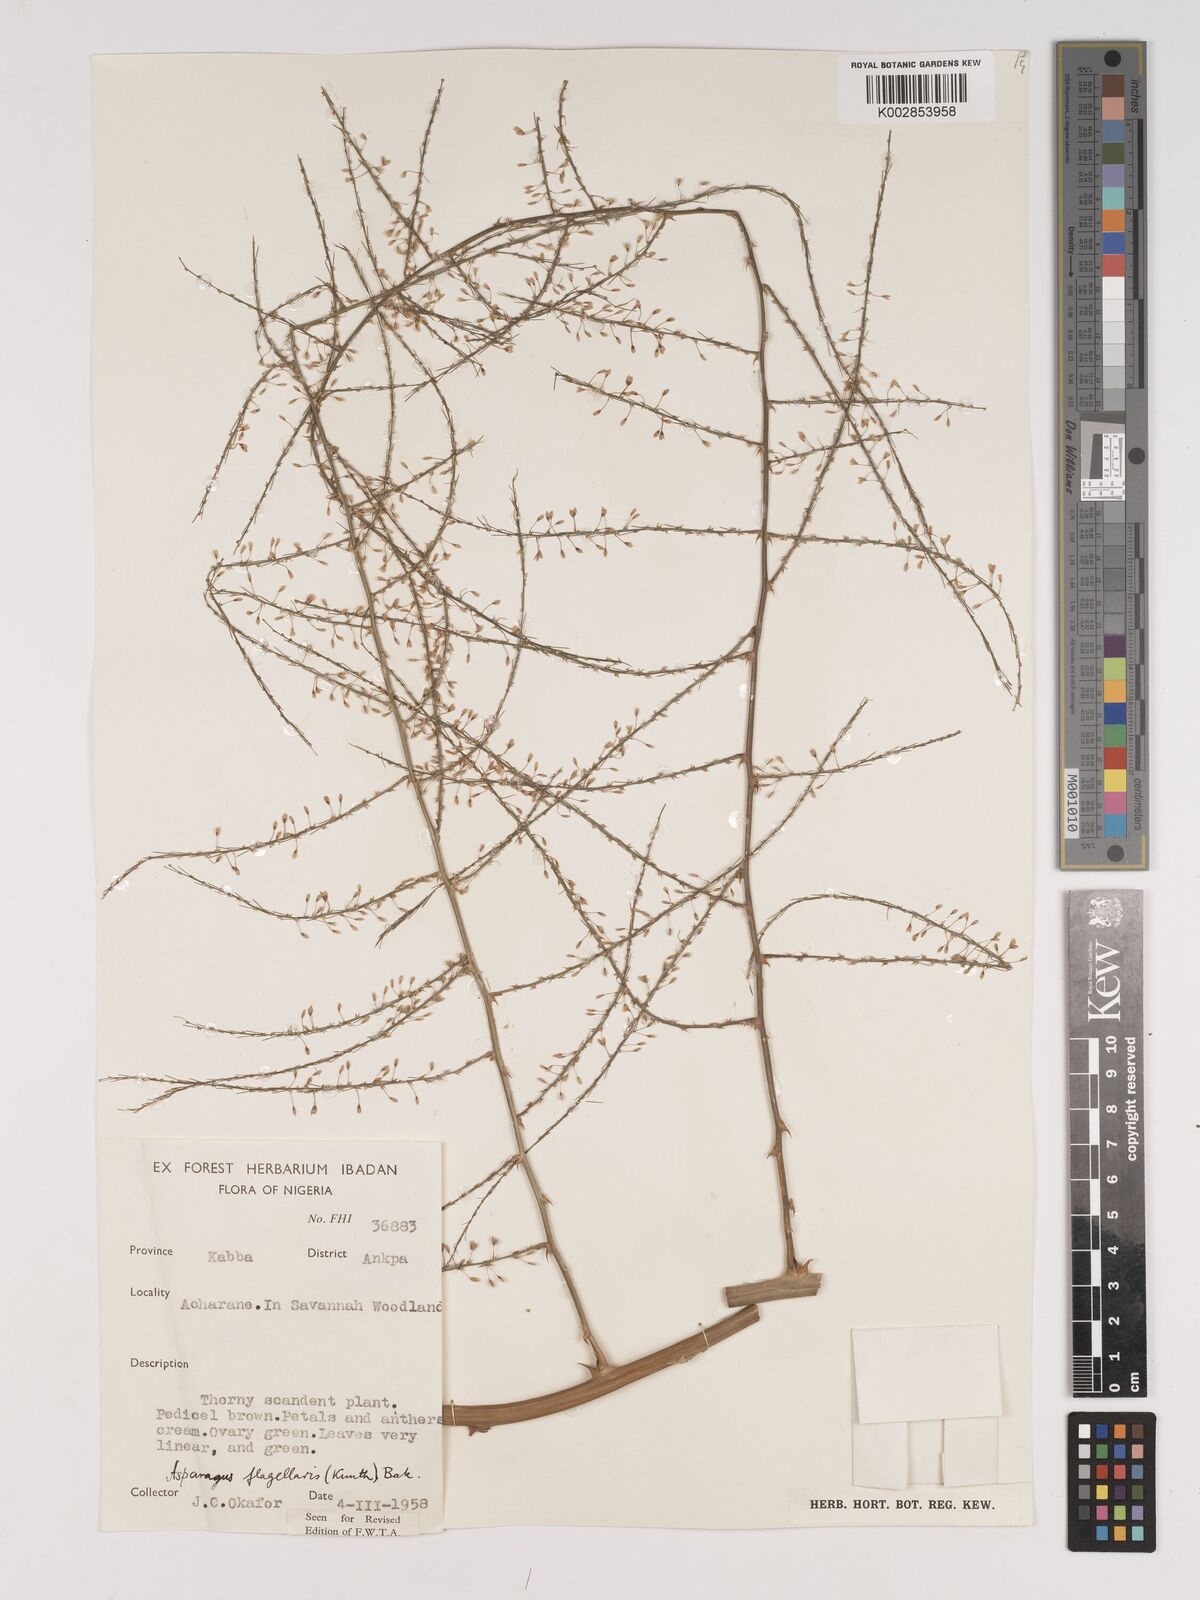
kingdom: Plantae
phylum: Tracheophyta
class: Liliopsida
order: Asparagales
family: Asparagaceae
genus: Asparagus
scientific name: Asparagus flagellaris
